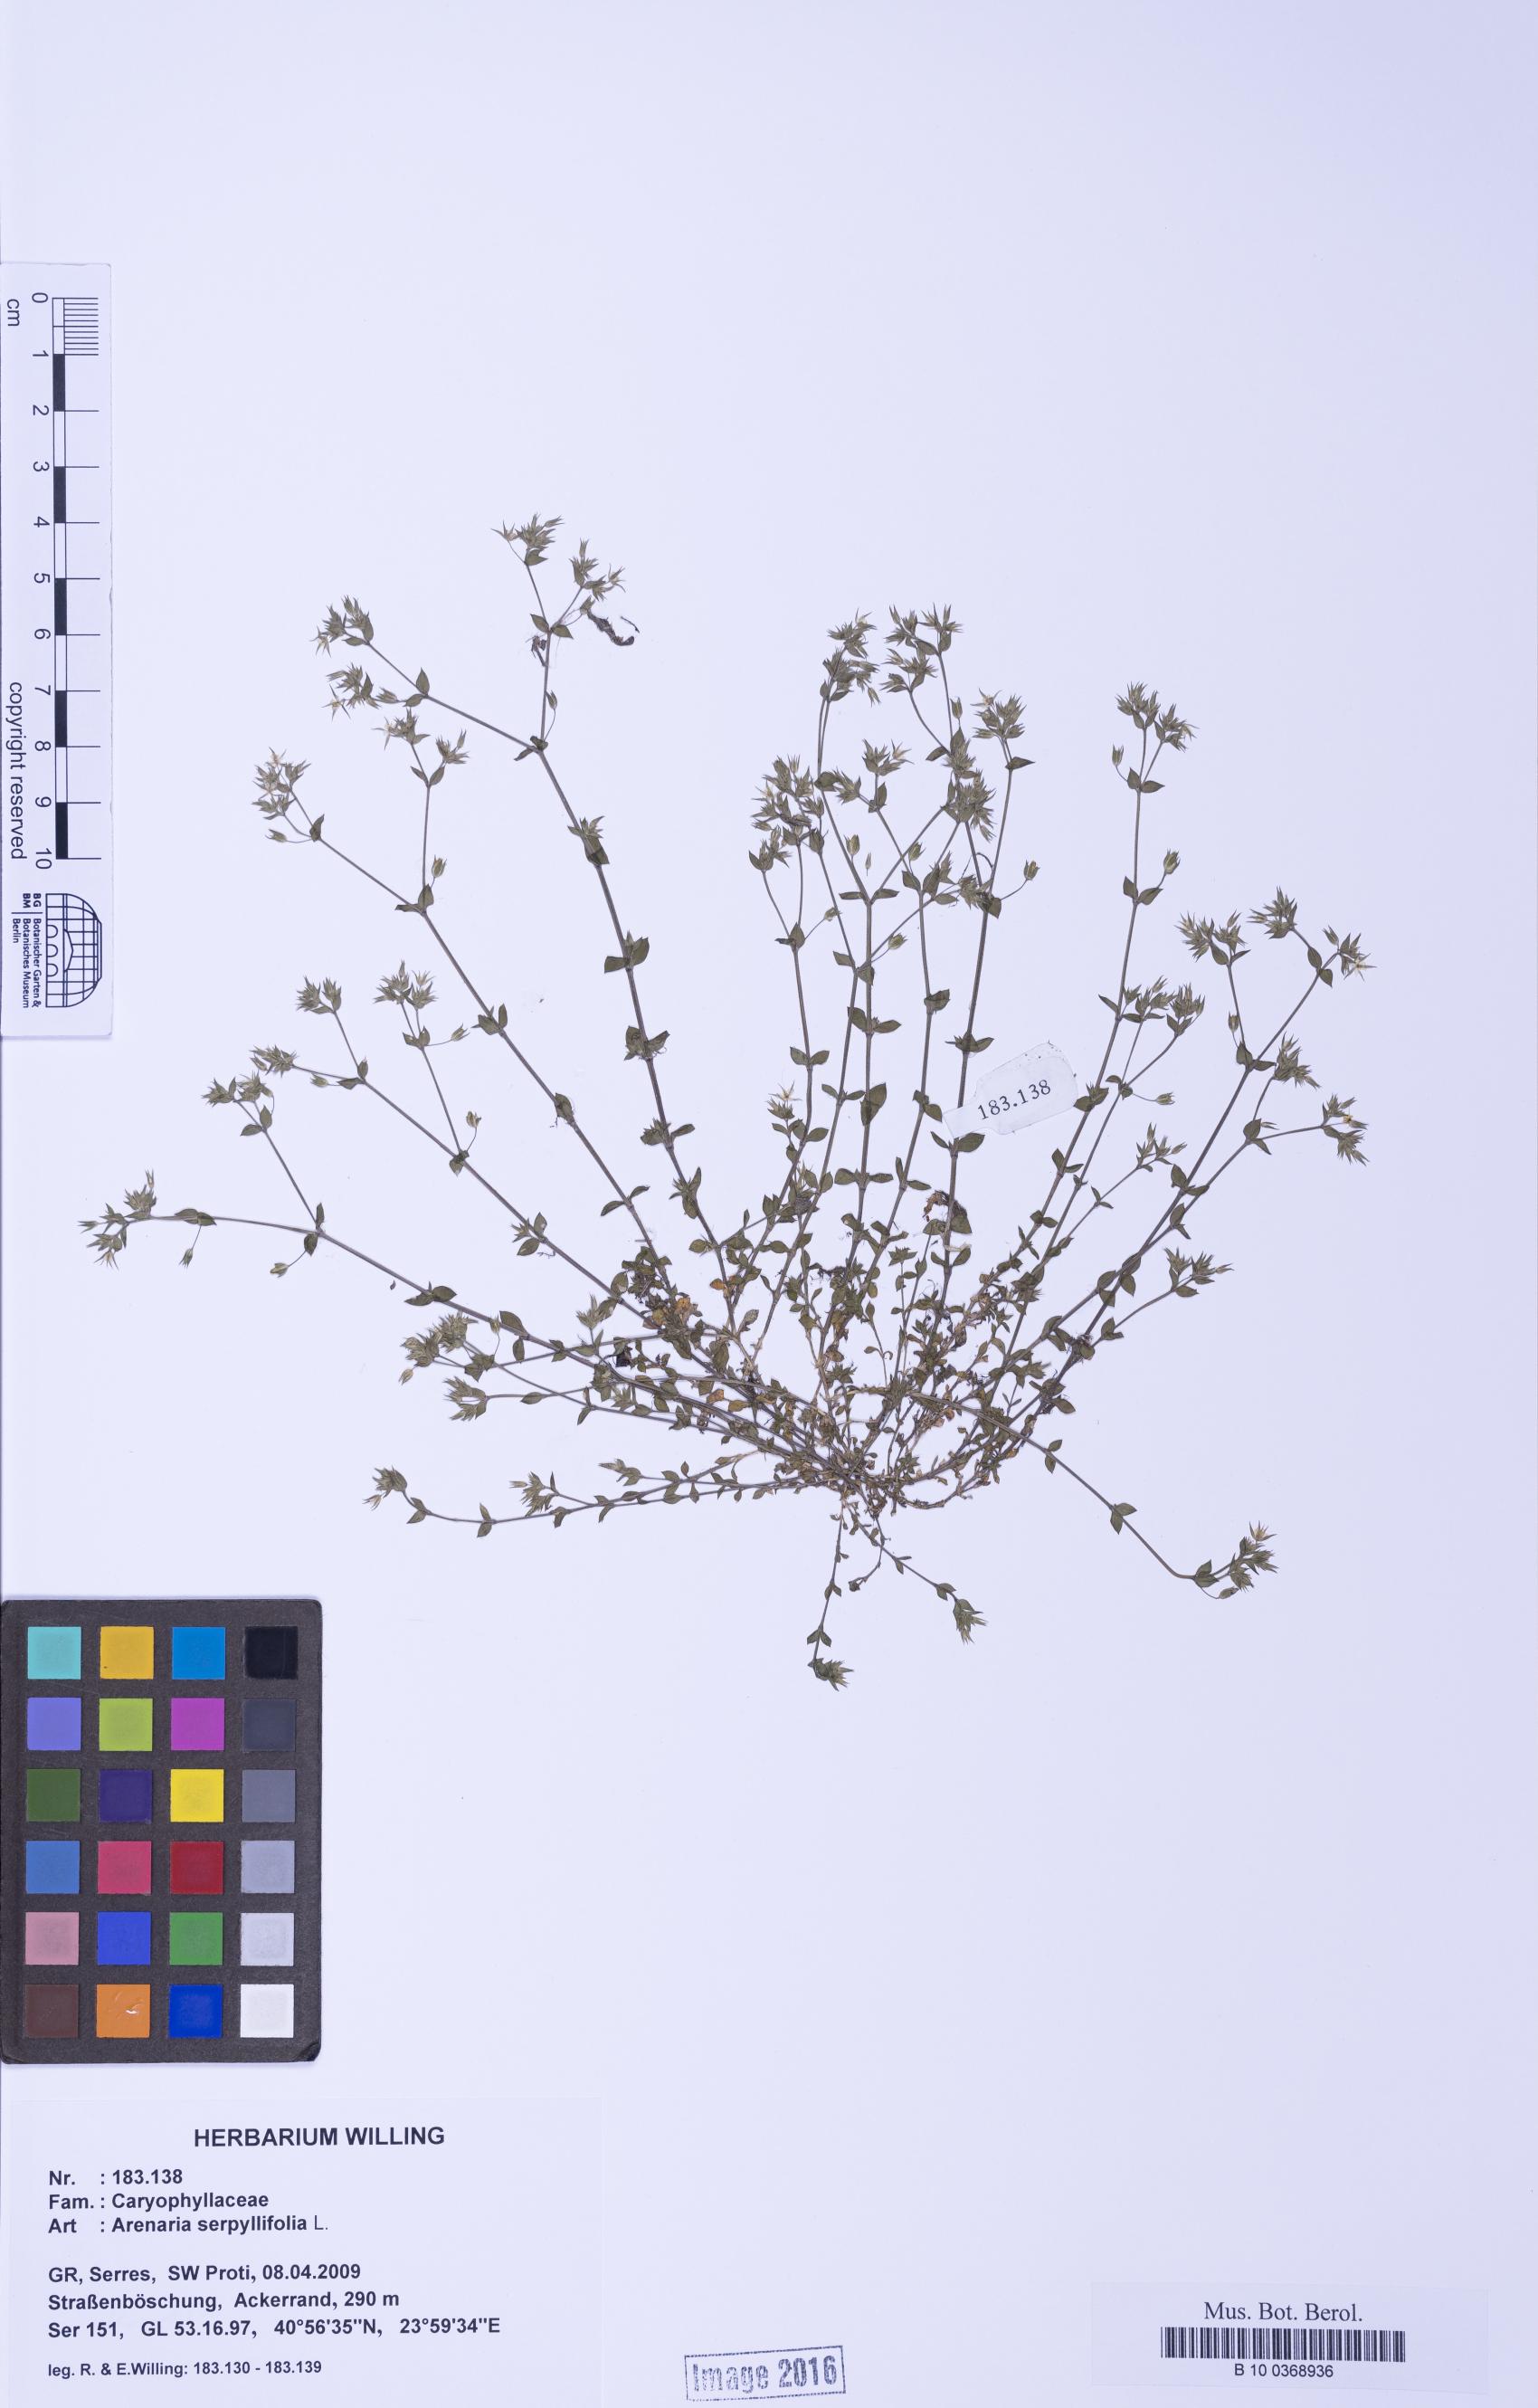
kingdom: Plantae
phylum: Tracheophyta
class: Magnoliopsida
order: Caryophyllales
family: Caryophyllaceae
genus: Arenaria
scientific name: Arenaria serpyllifolia
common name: Thyme-leaved sandwort
